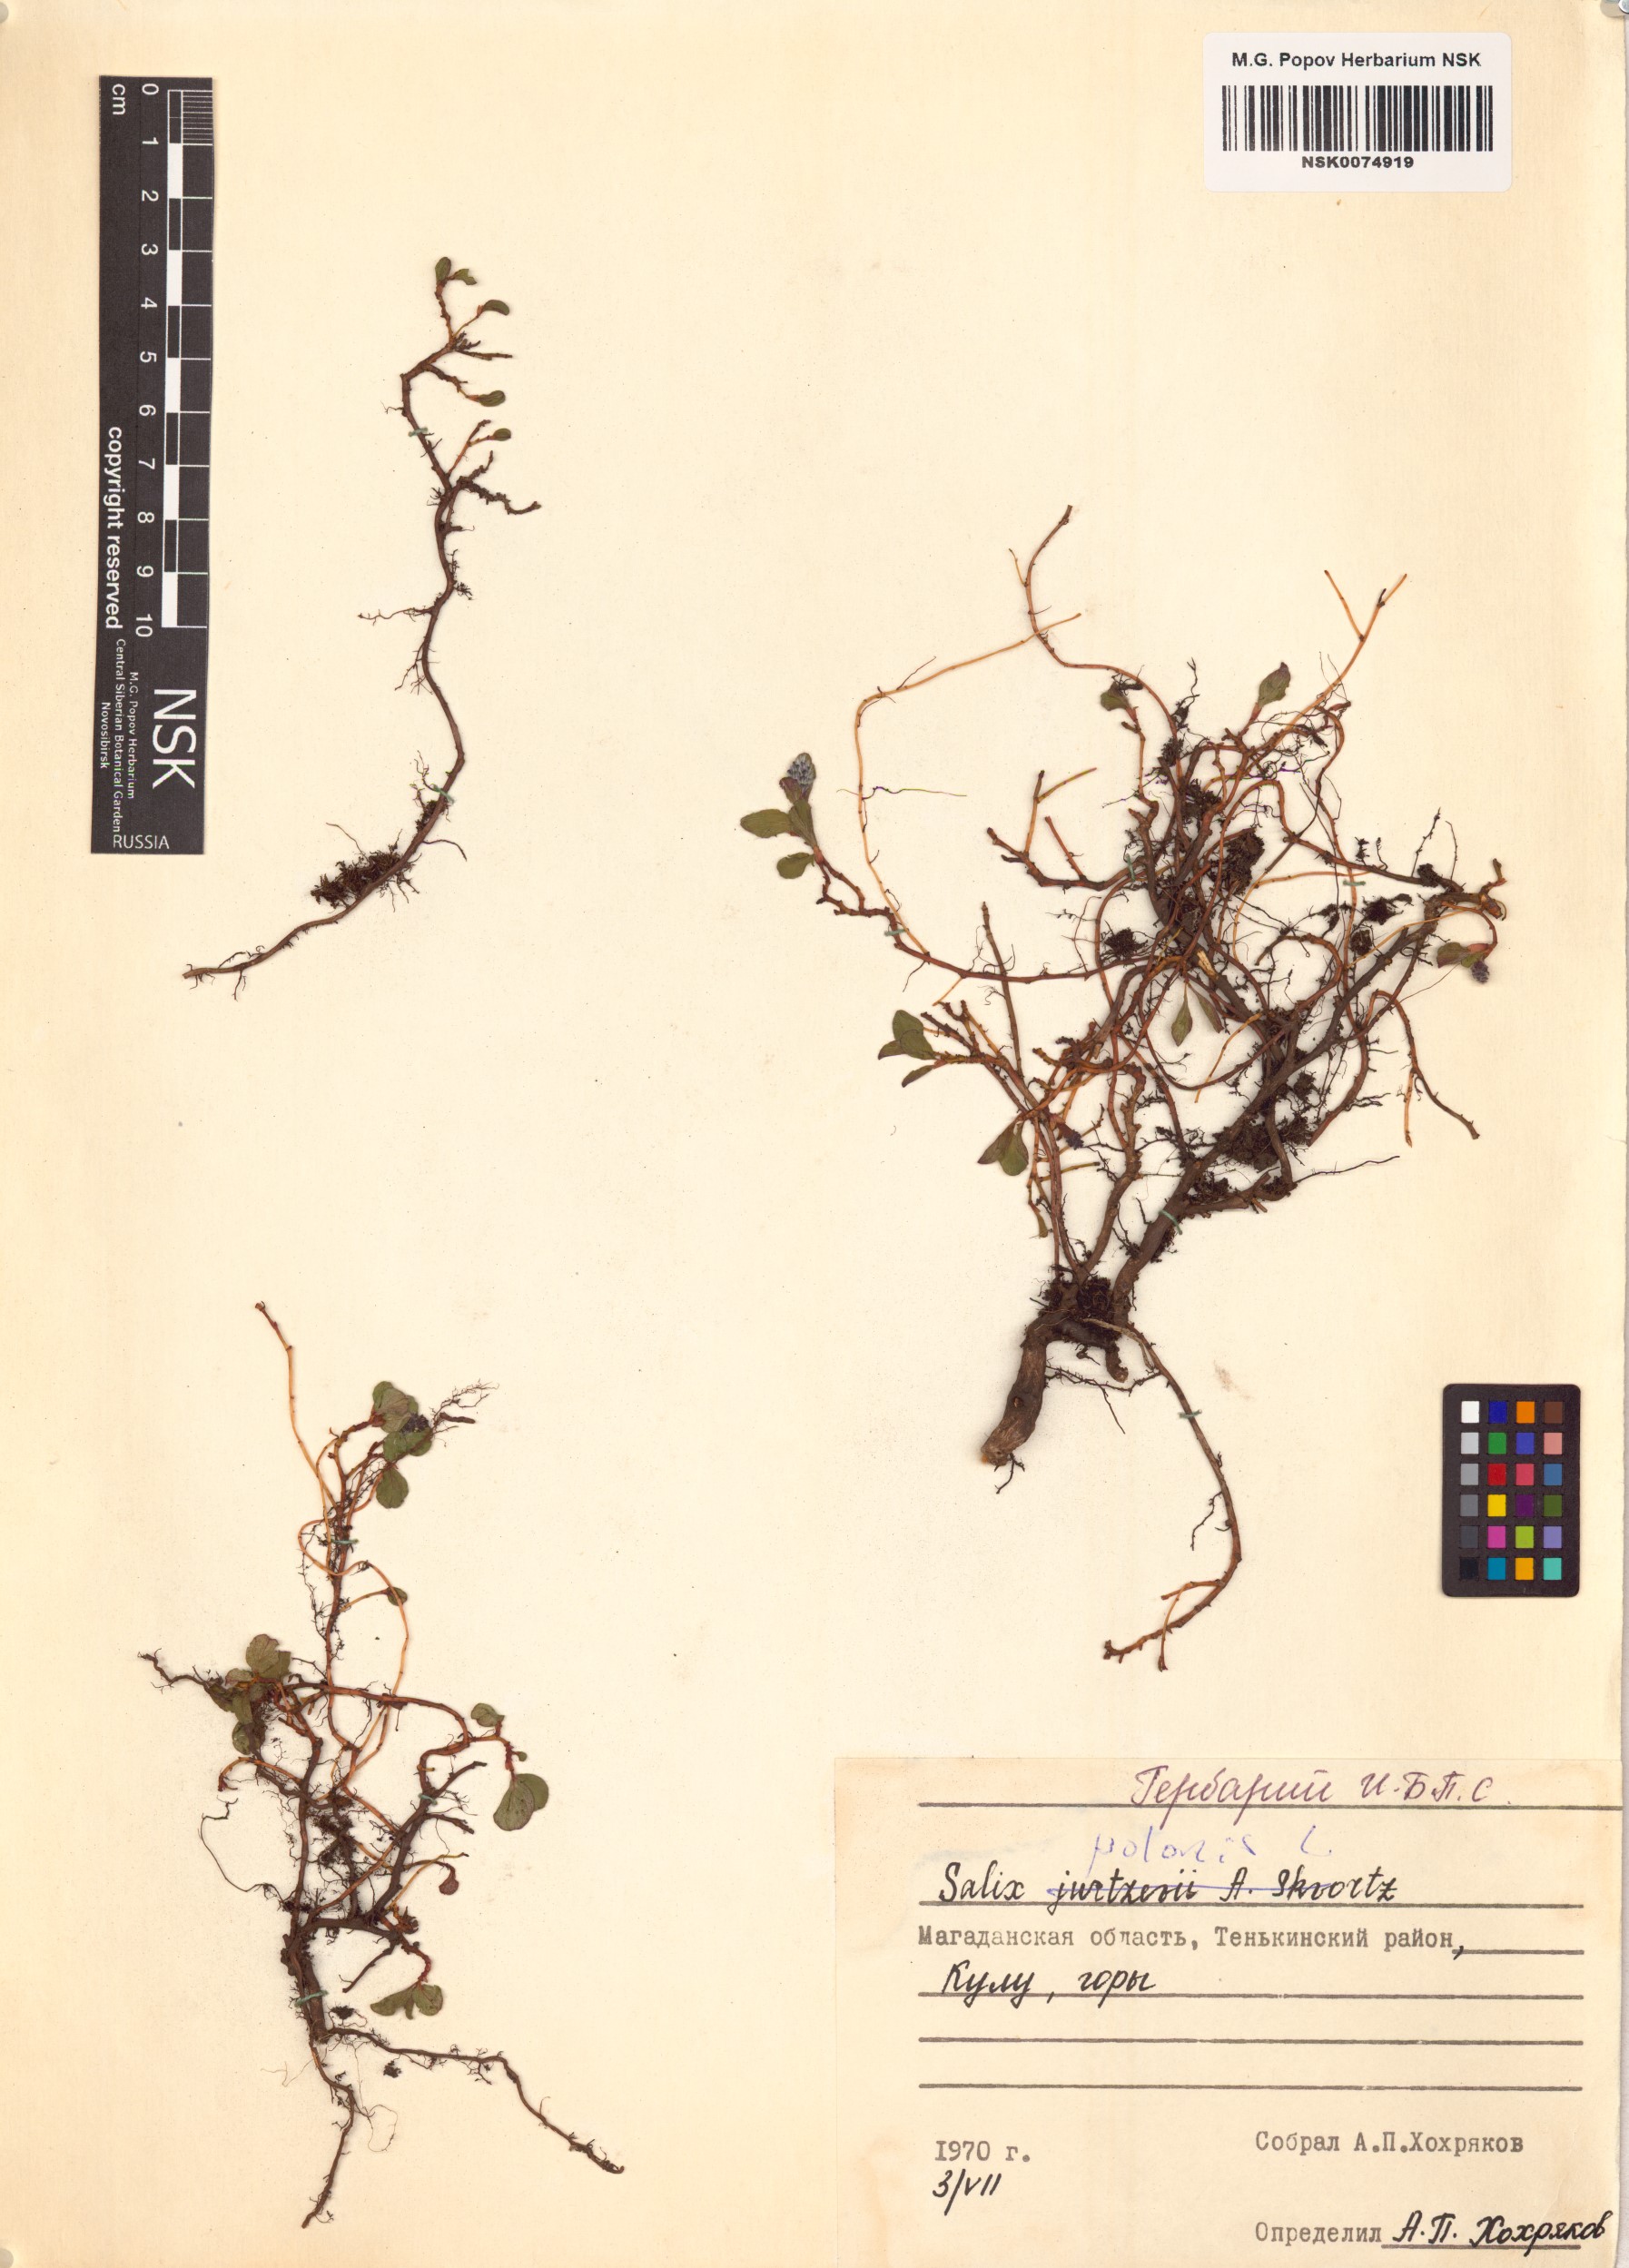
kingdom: Plantae
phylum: Tracheophyta
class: Magnoliopsida
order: Malpighiales
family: Salicaceae
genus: Salix
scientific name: Salix polaris
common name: Polar willow
